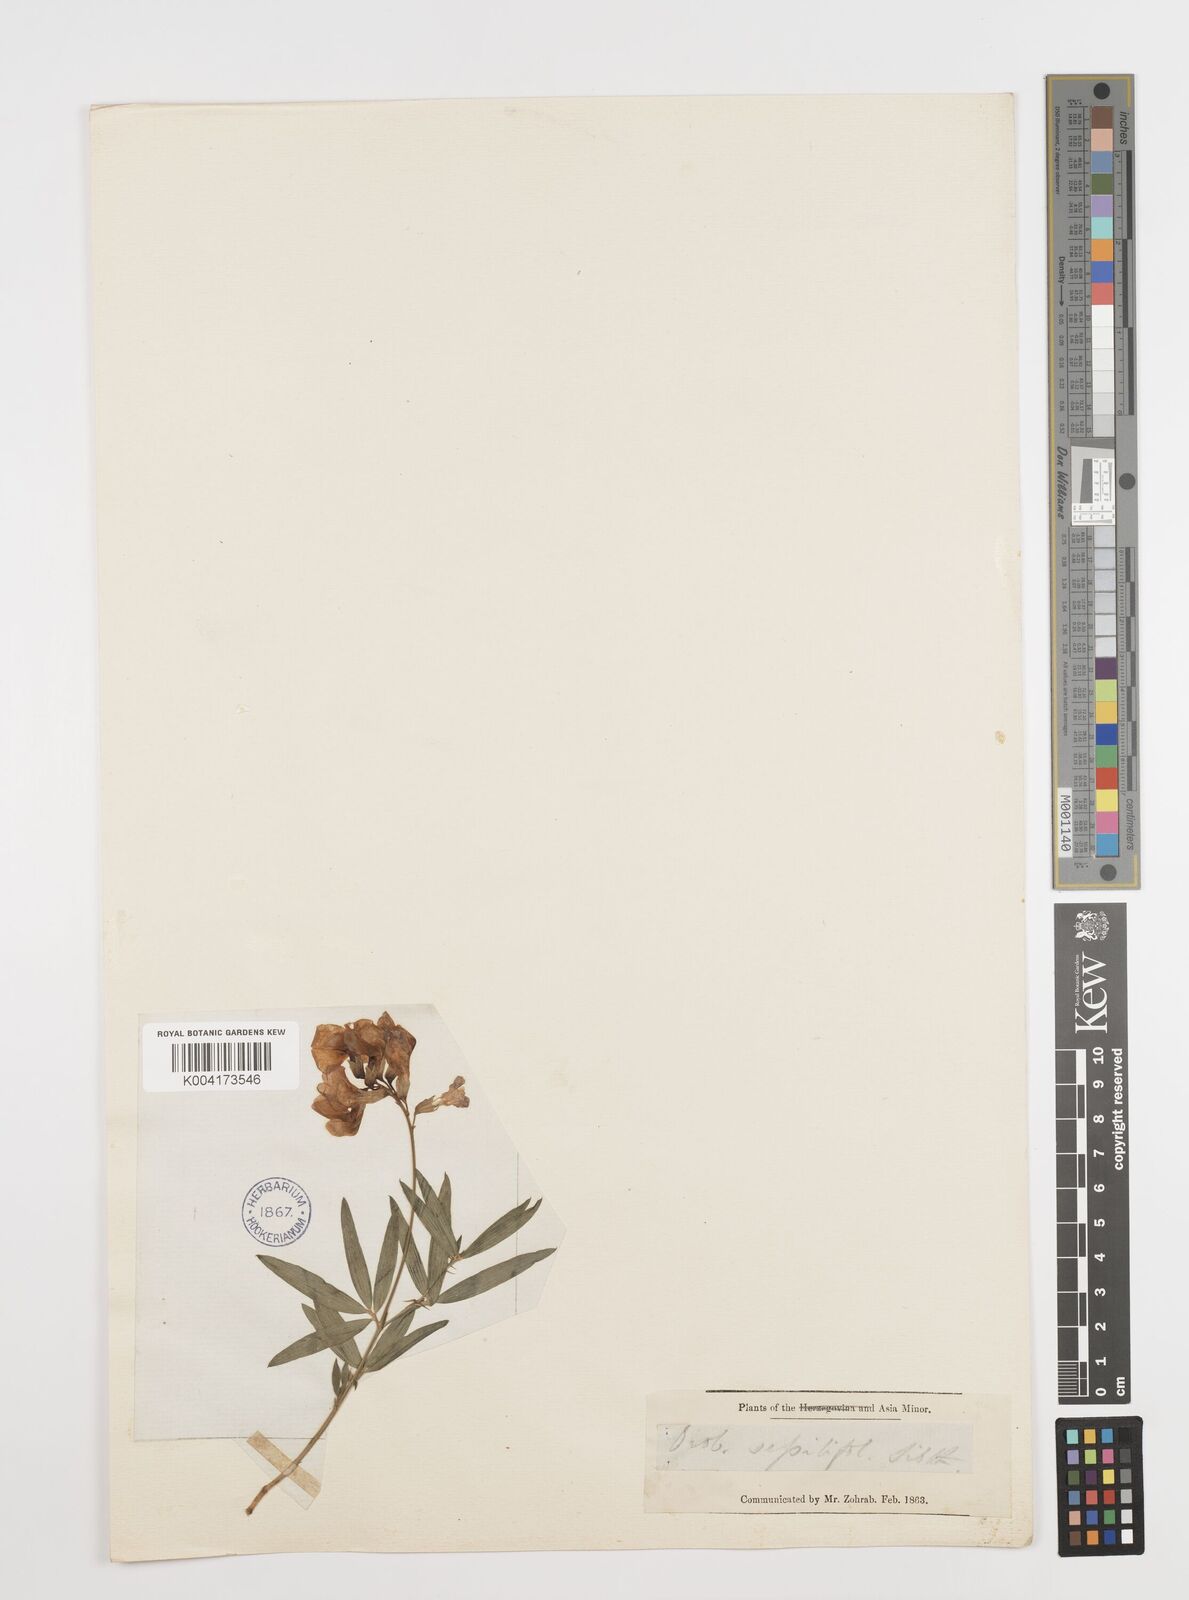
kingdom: Plantae
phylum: Tracheophyta
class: Magnoliopsida
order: Fabales
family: Fabaceae
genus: Lathyrus
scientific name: Lathyrus tukhtensis
